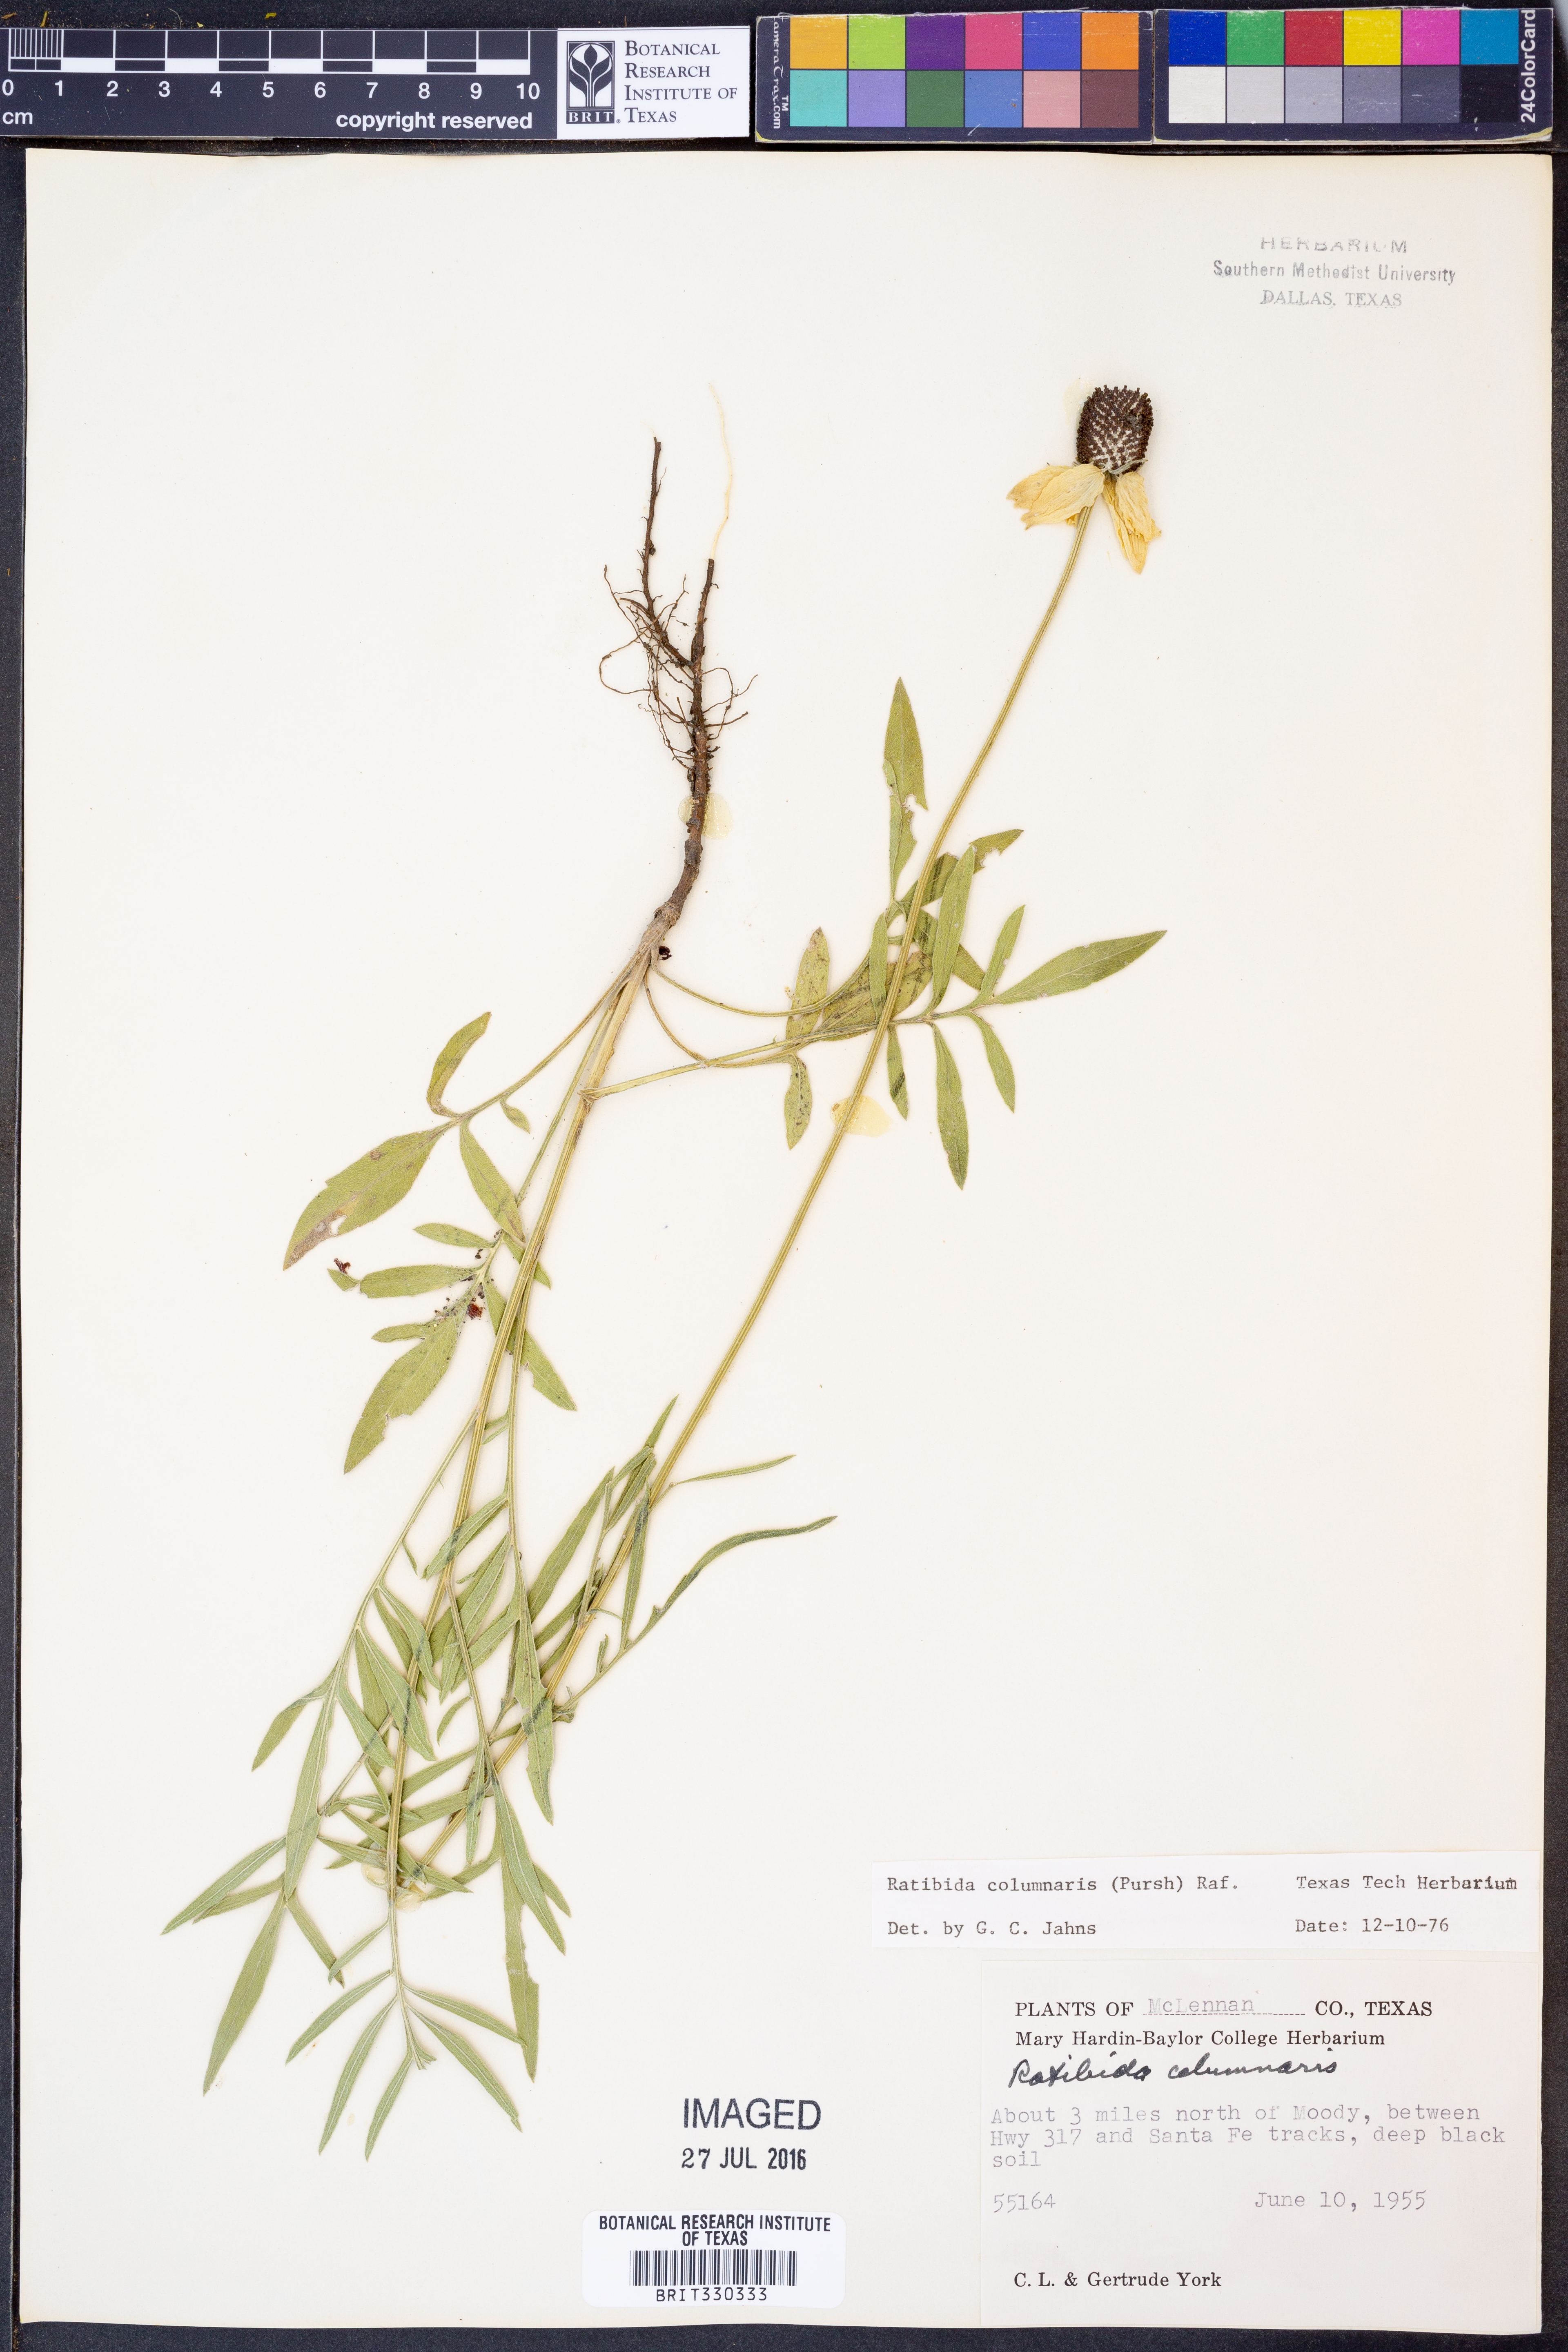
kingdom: Plantae
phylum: Tracheophyta
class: Magnoliopsida
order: Asterales
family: Asteraceae
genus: Ratibida
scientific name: Ratibida columnifera
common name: Prairie coneflower
